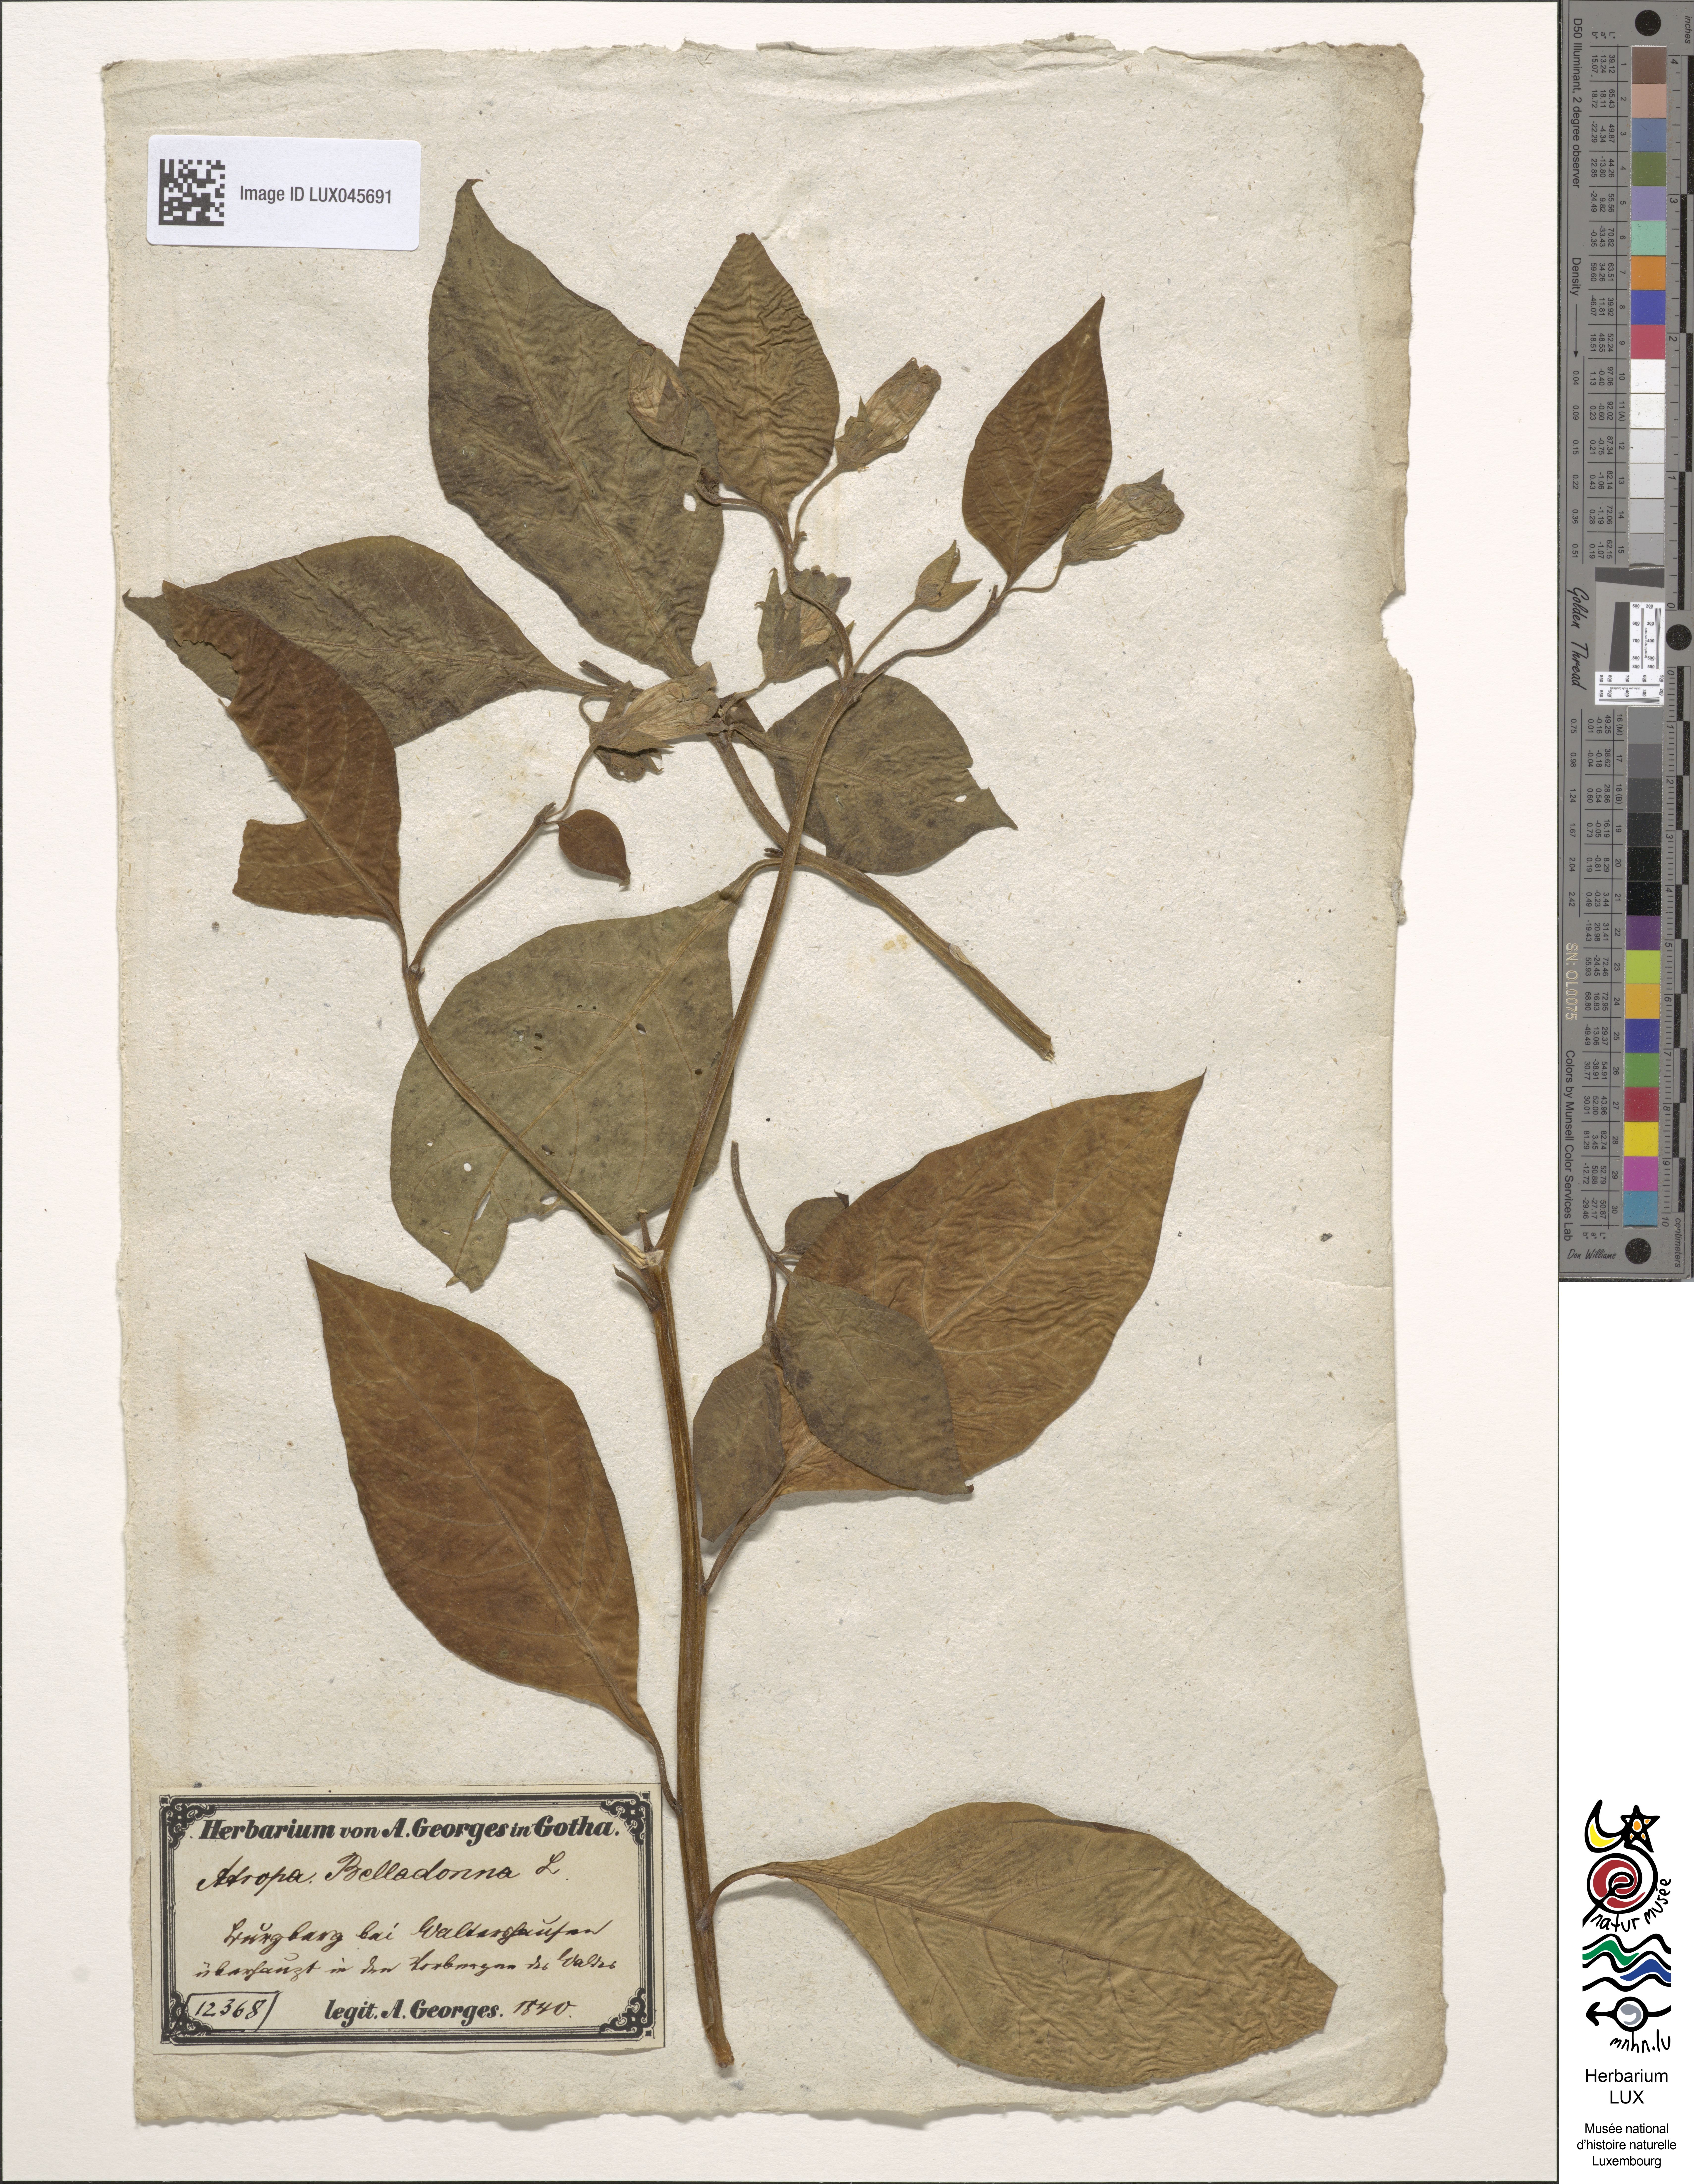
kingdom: Plantae
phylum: Tracheophyta
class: Magnoliopsida
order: Solanales
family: Solanaceae
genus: Atropa
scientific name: Atropa belladonna
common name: Deadly nightshade
